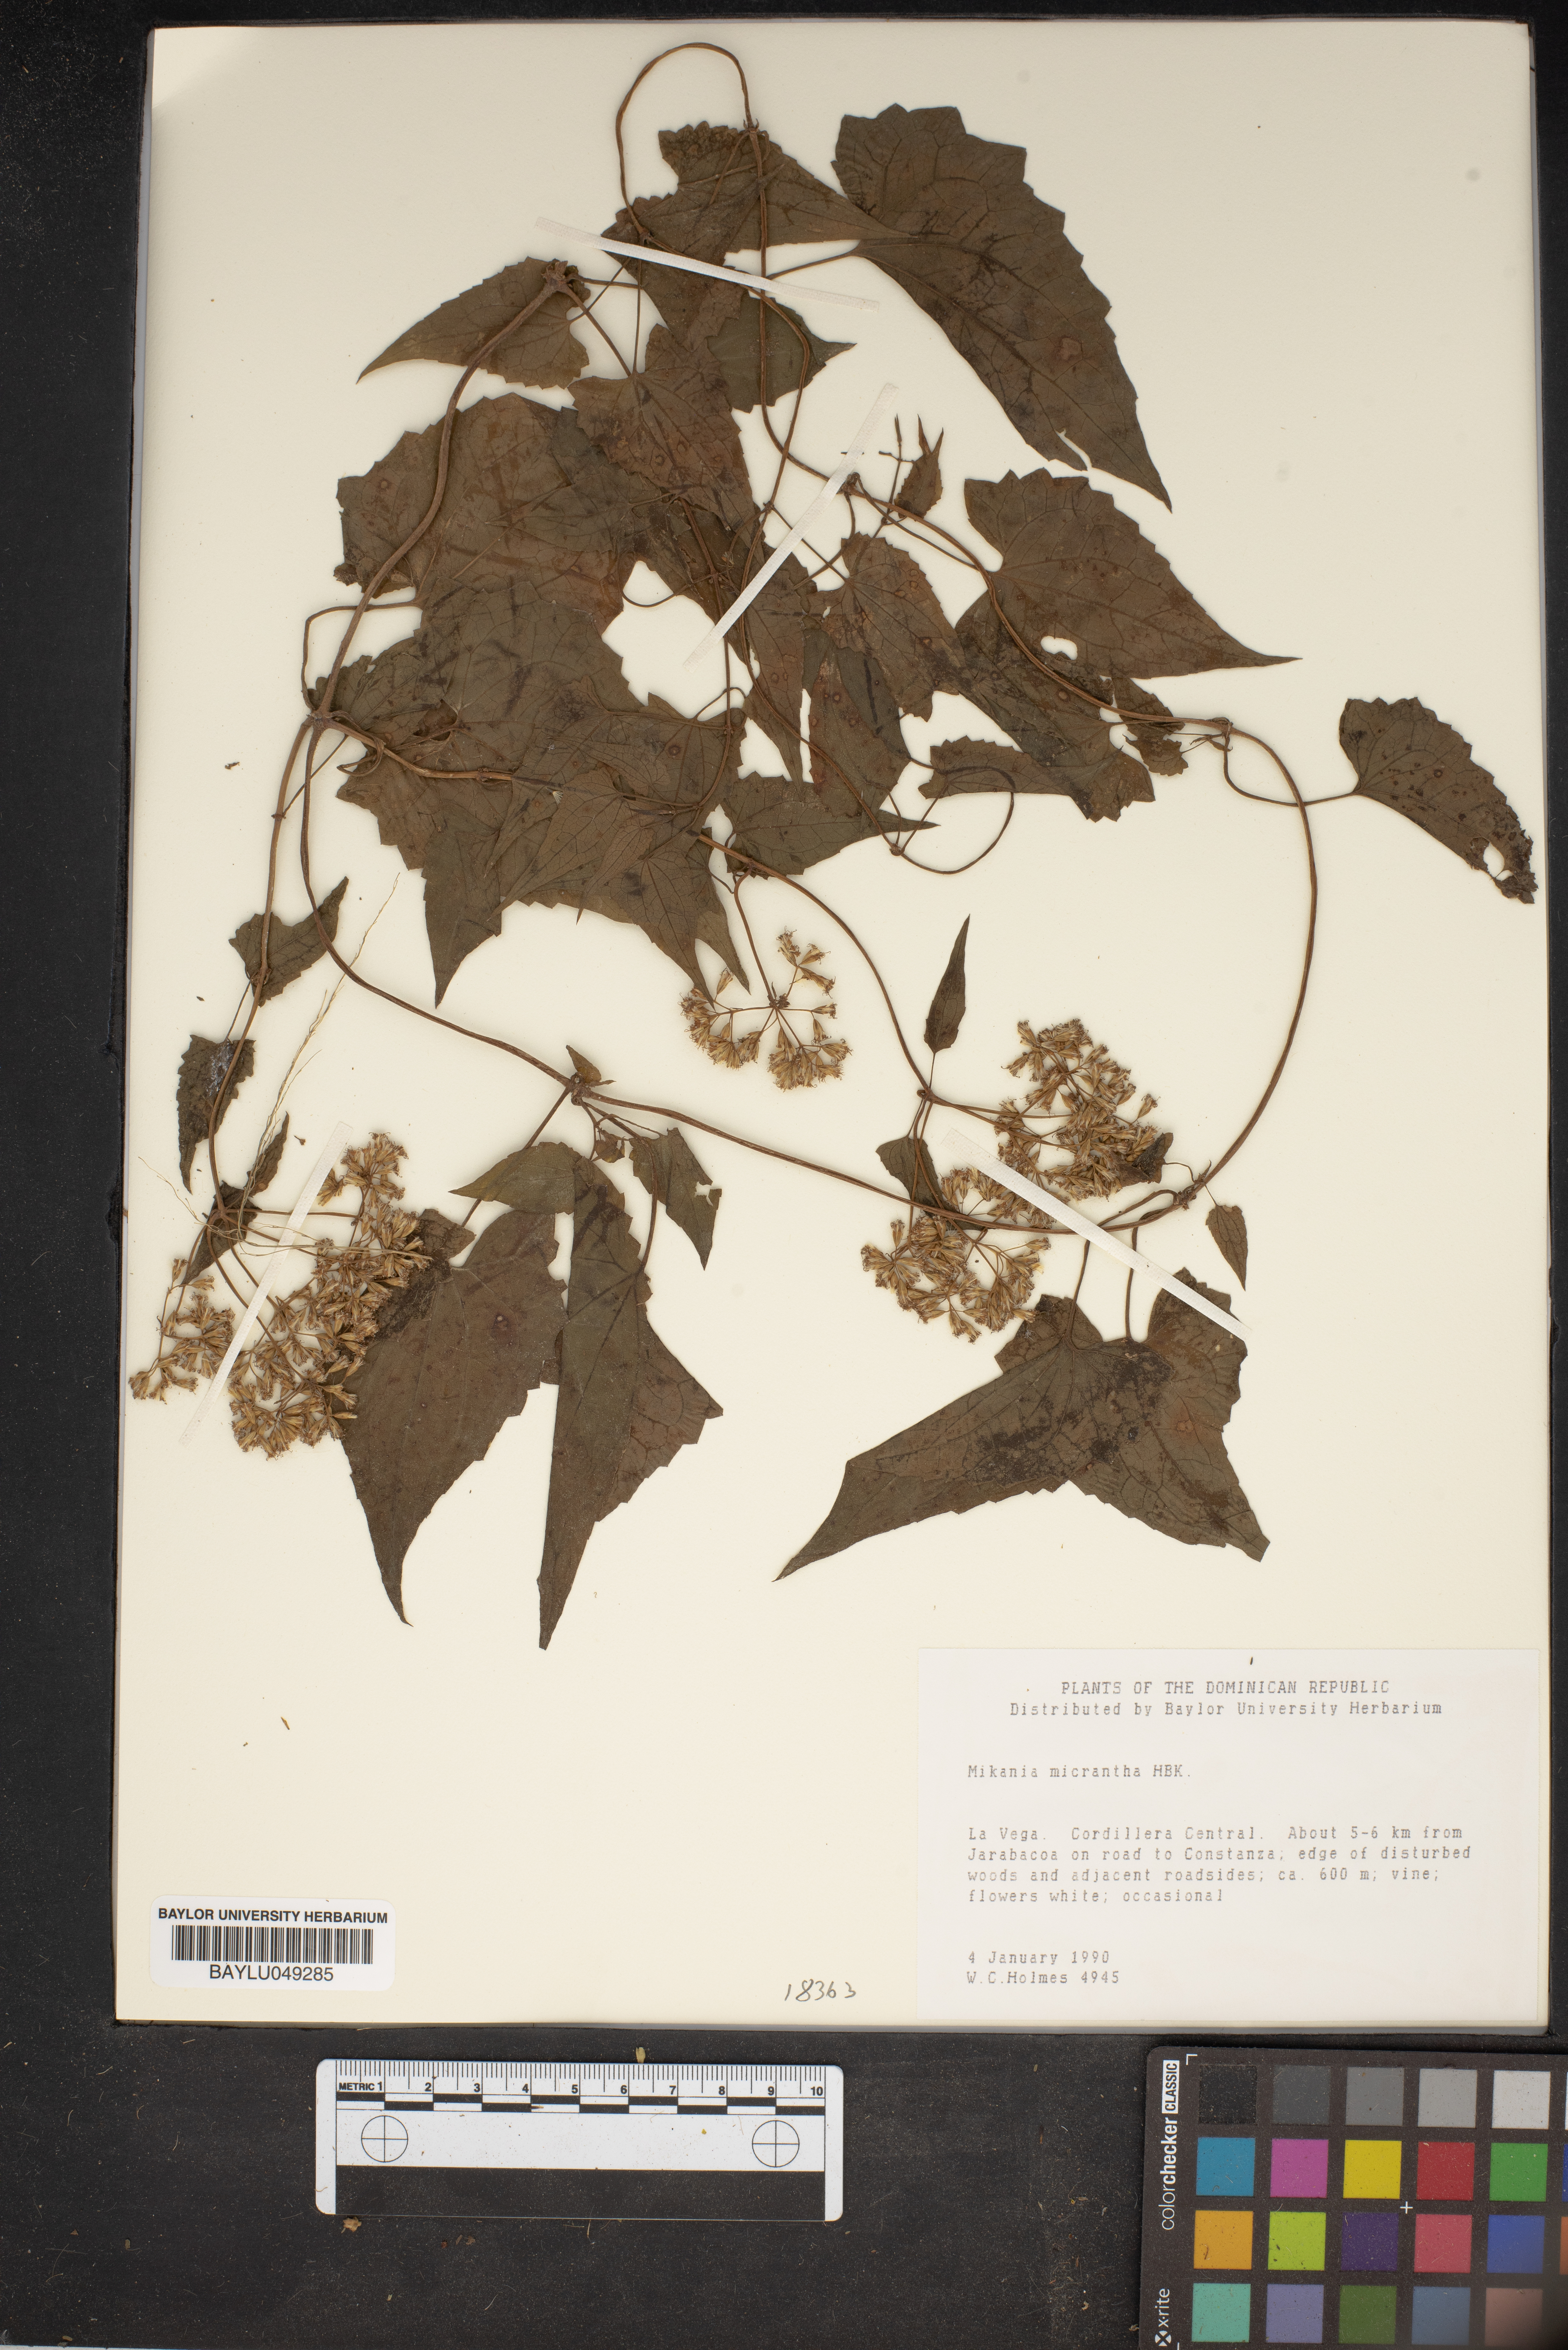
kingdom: Plantae
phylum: Tracheophyta
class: Magnoliopsida
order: Asterales
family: Asteraceae
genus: Mikania
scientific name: Mikania micrantha
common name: Mile-a-minute
